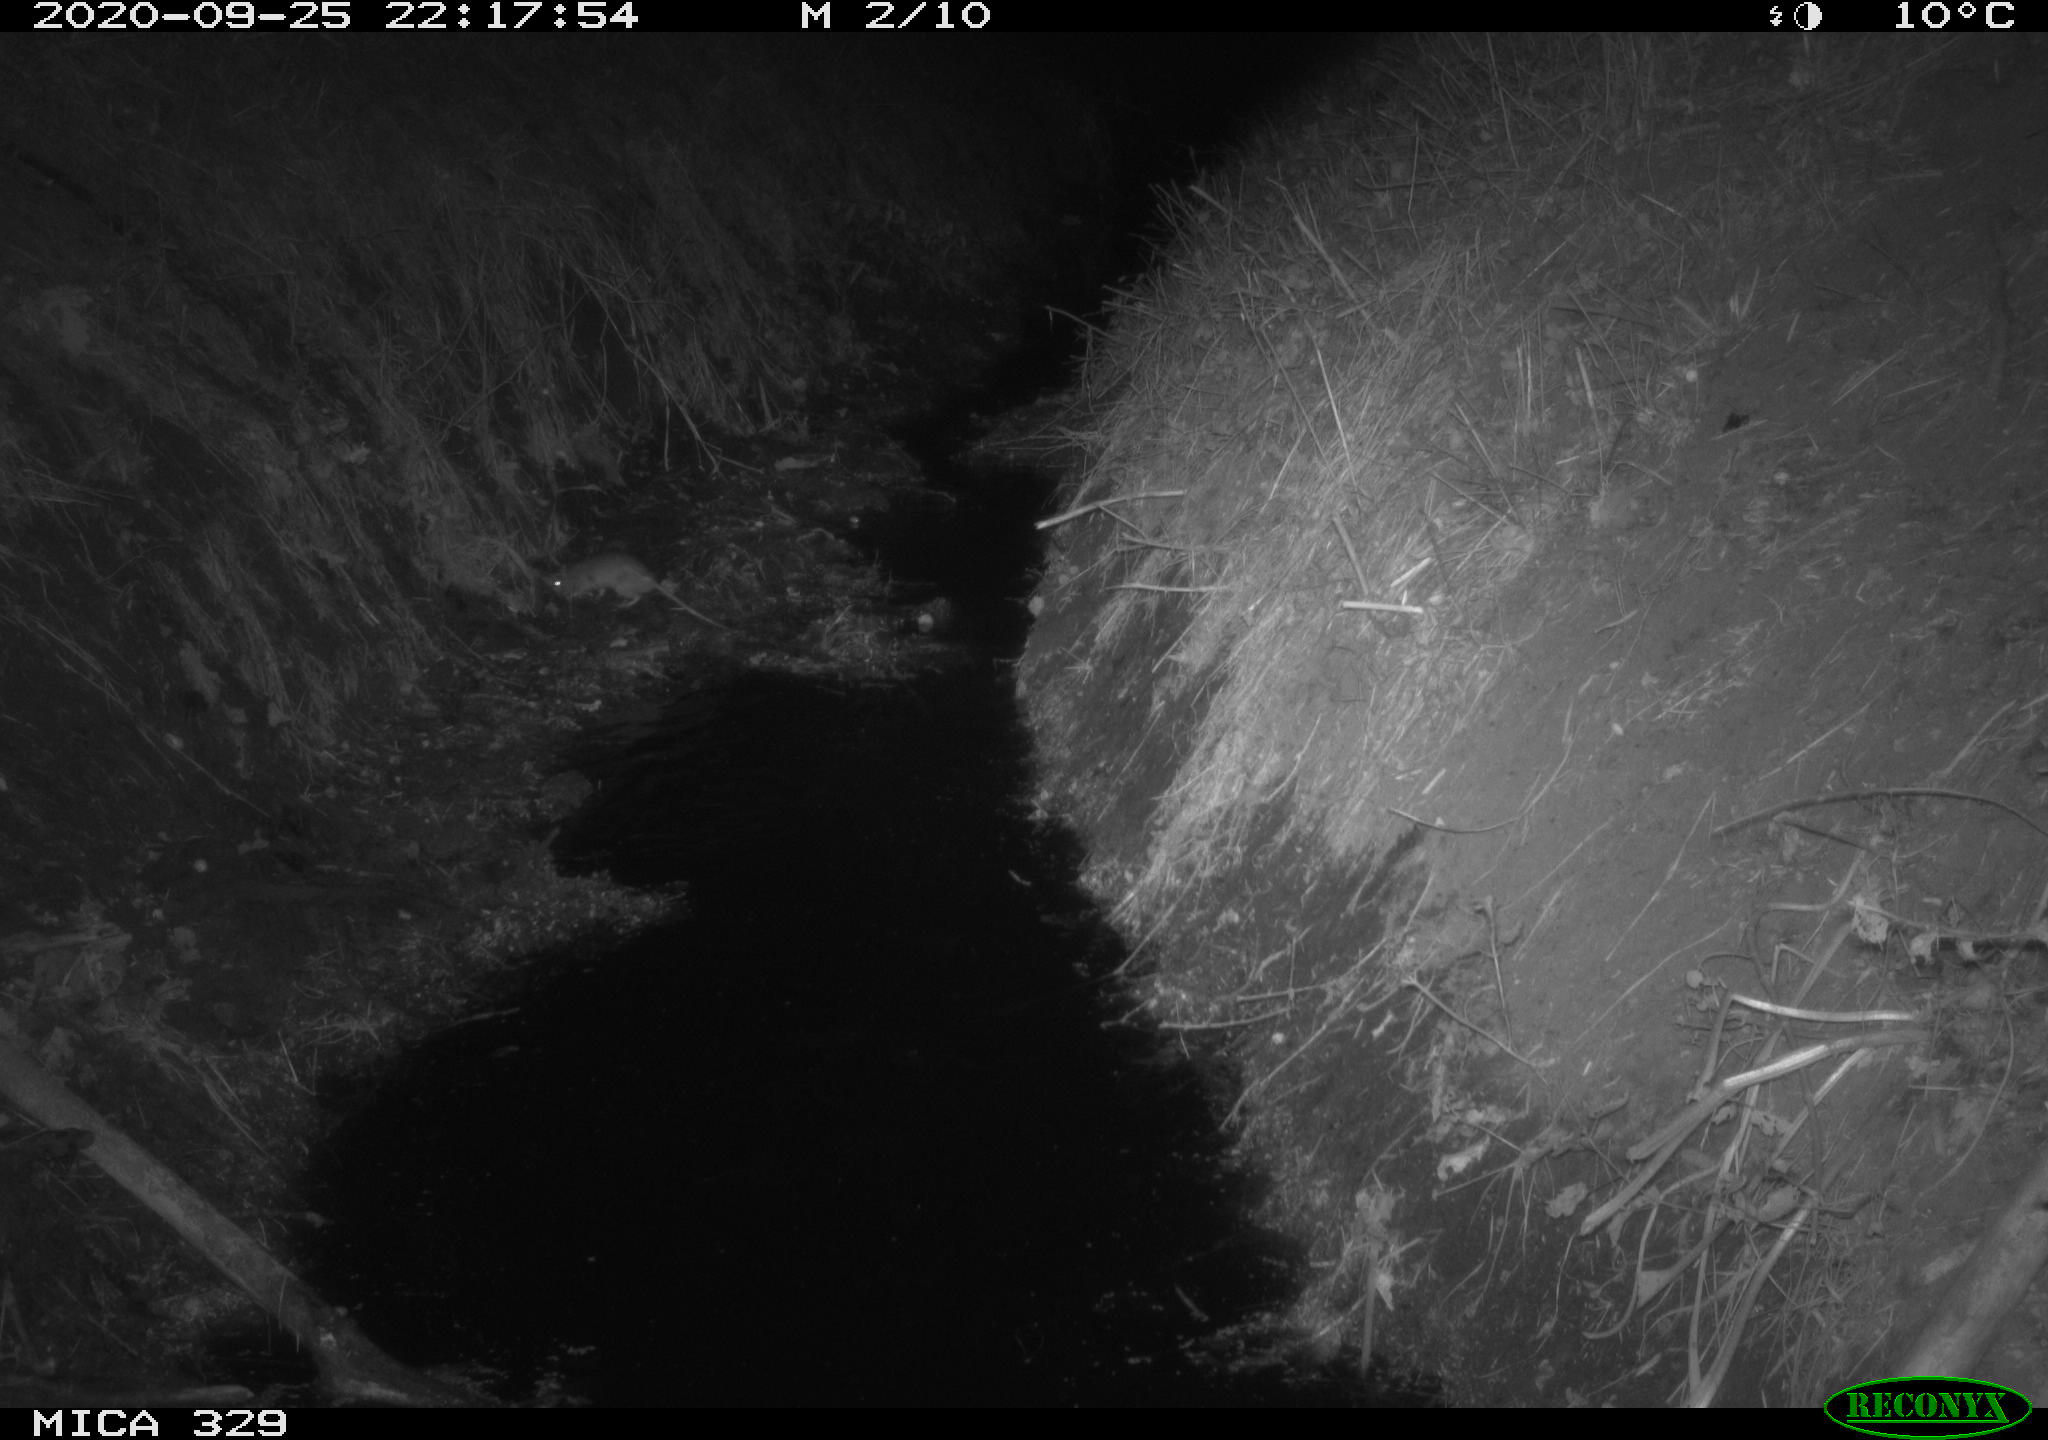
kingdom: Animalia
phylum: Chordata
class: Mammalia
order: Rodentia
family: Muridae
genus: Rattus
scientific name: Rattus norvegicus
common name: Brown rat
